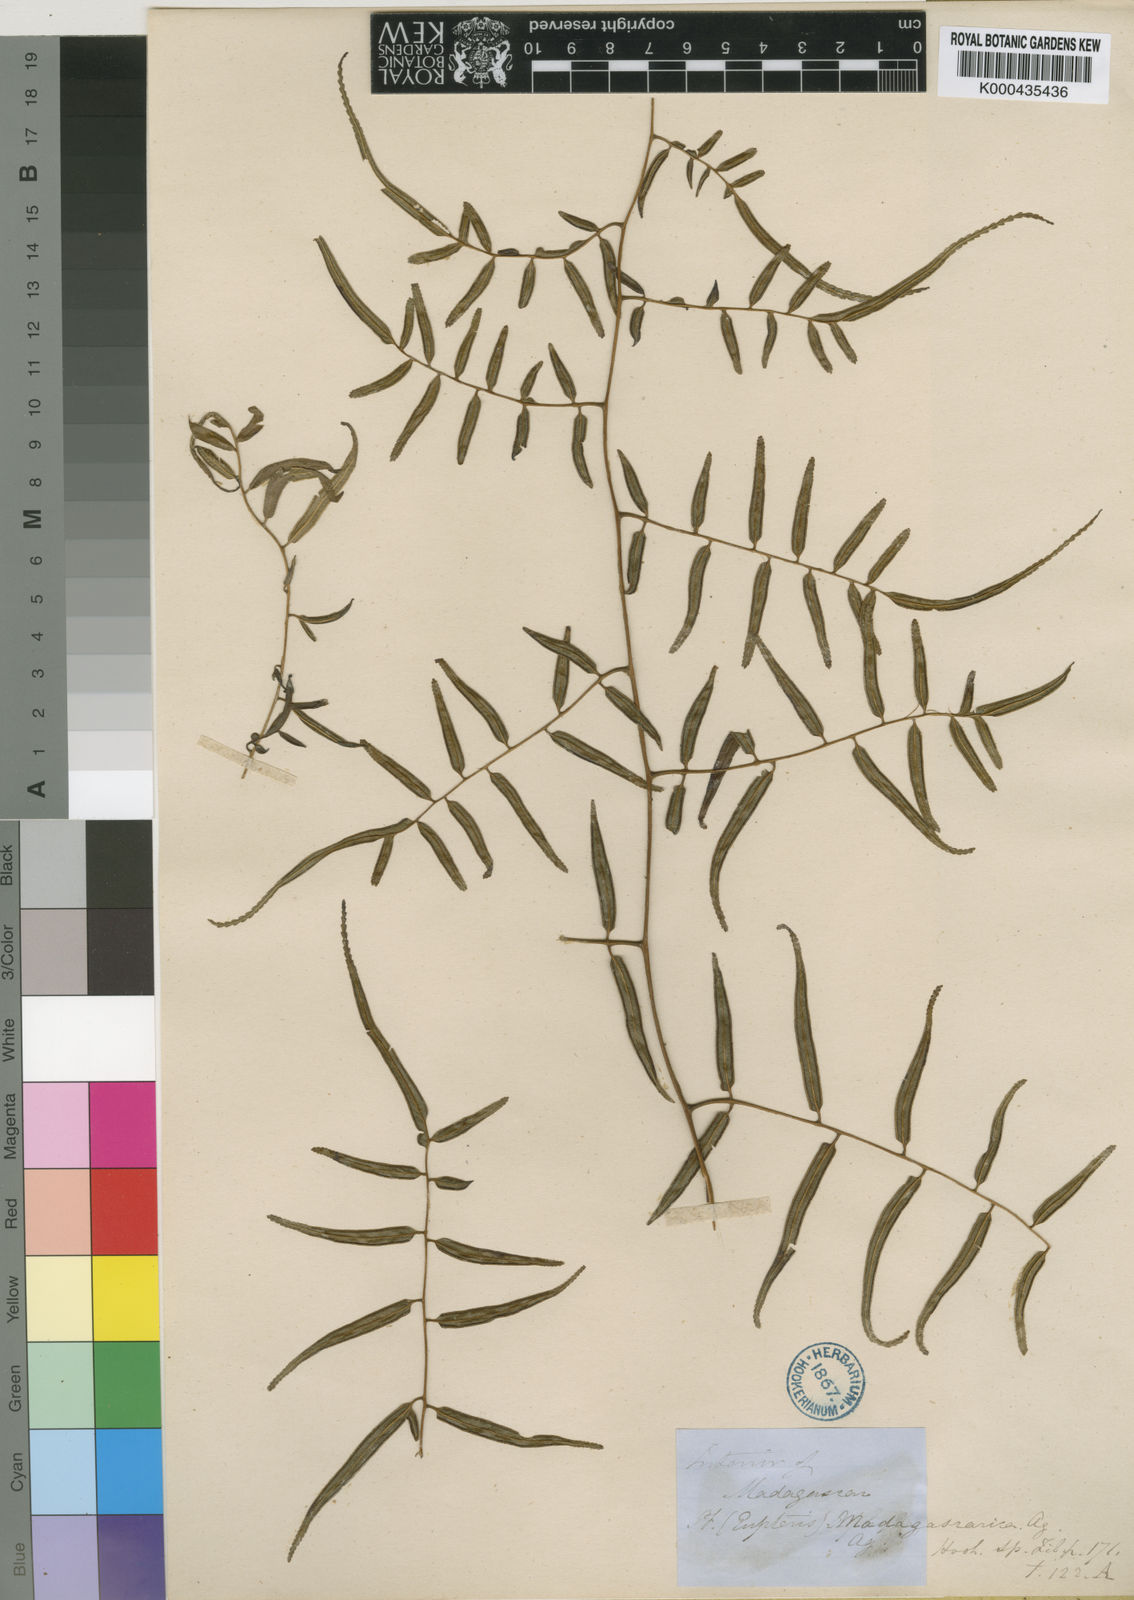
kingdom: Plantae
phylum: Tracheophyta
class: Polypodiopsida
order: Polypodiales
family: Pteridaceae
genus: Pteris
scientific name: Pteris madagascarica
